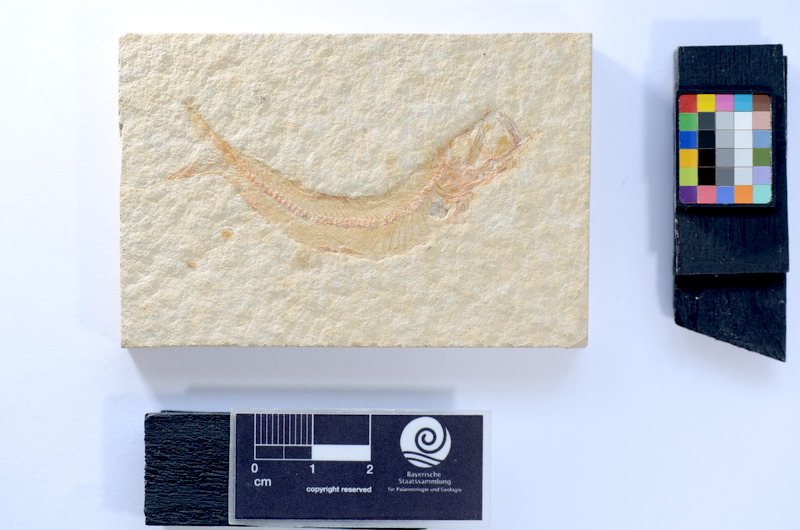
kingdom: Animalia
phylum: Chordata
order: Salmoniformes
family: Orthogonikleithridae
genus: Leptolepides
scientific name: Leptolepides sprattiformis
